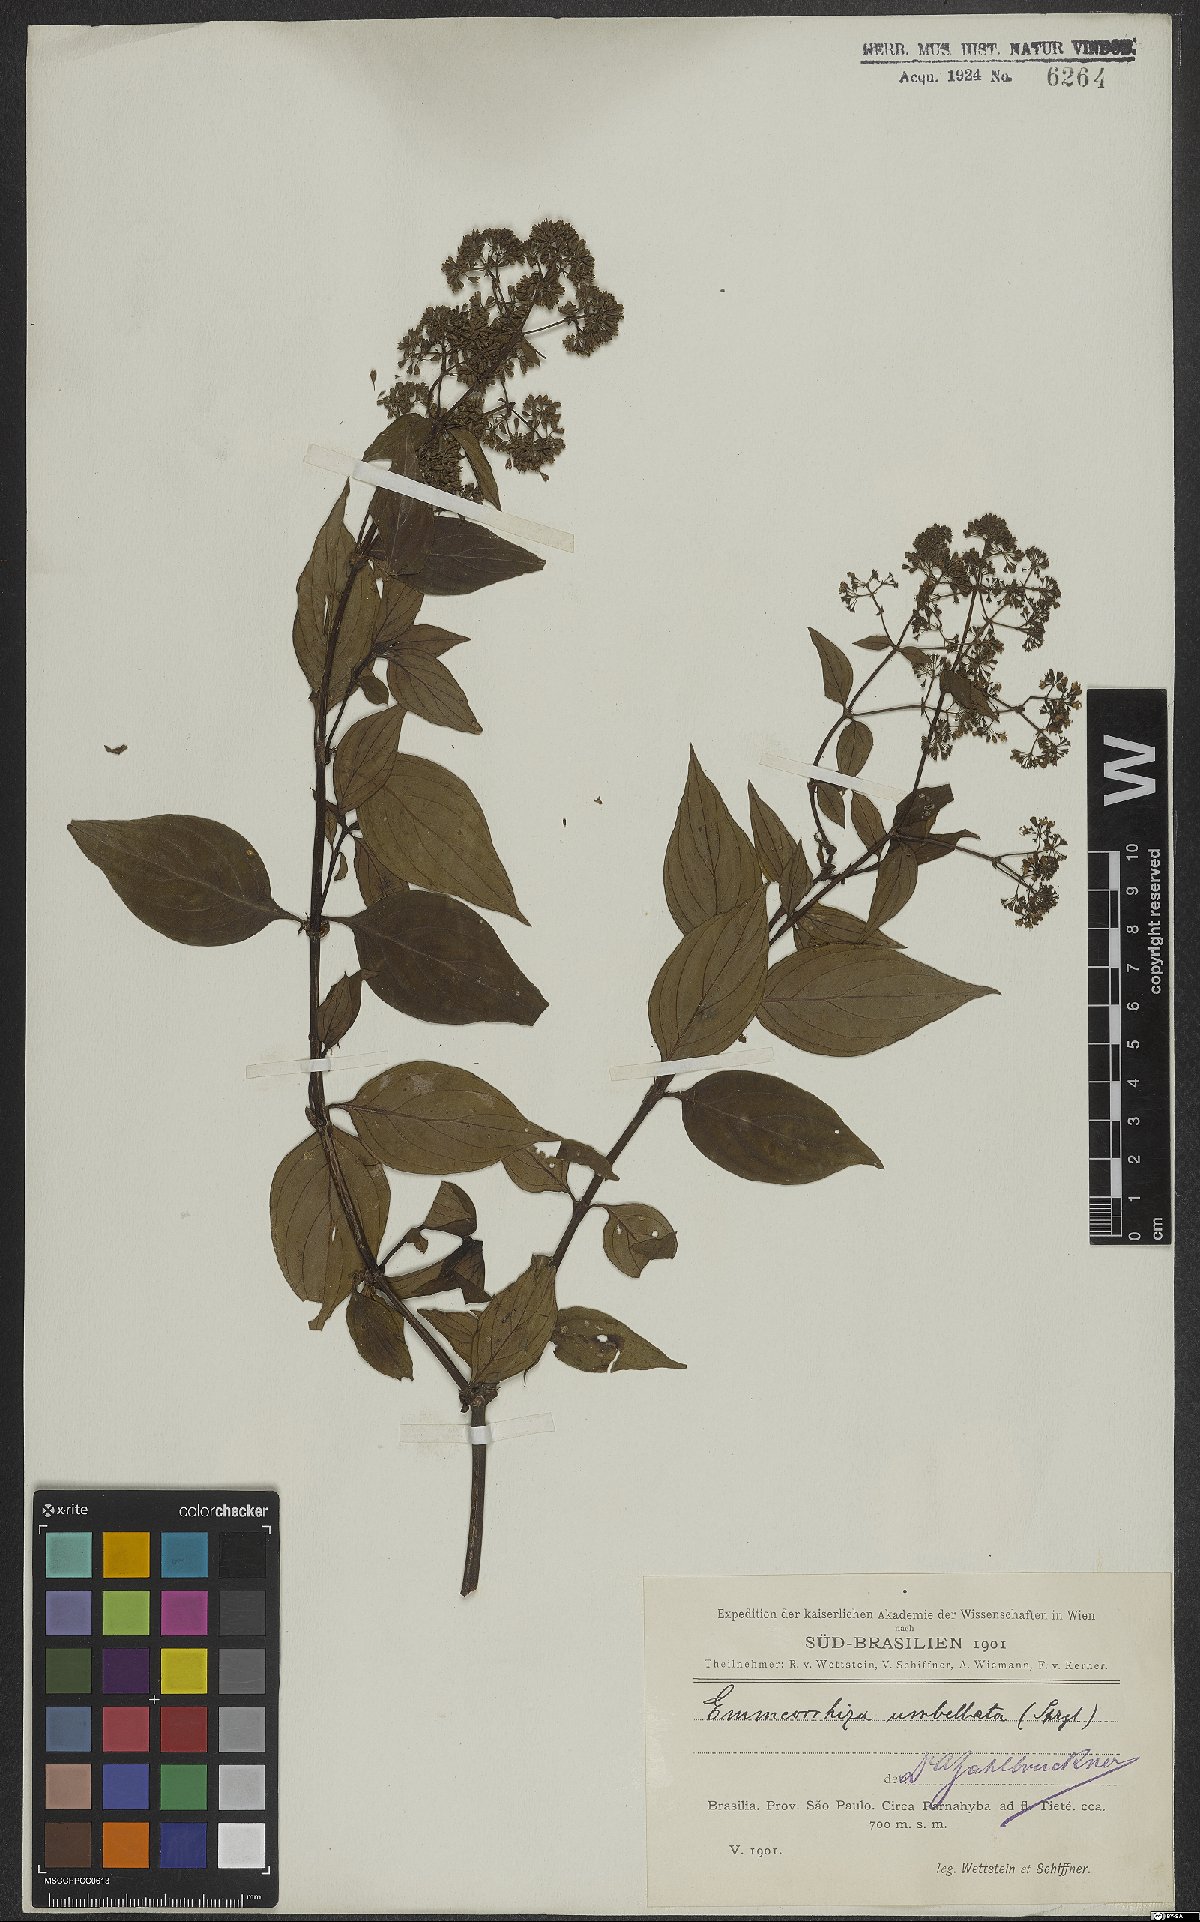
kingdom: Plantae
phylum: Tracheophyta
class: Magnoliopsida
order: Gentianales
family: Rubiaceae
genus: Emmeorhiza
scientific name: Emmeorhiza umbellata
